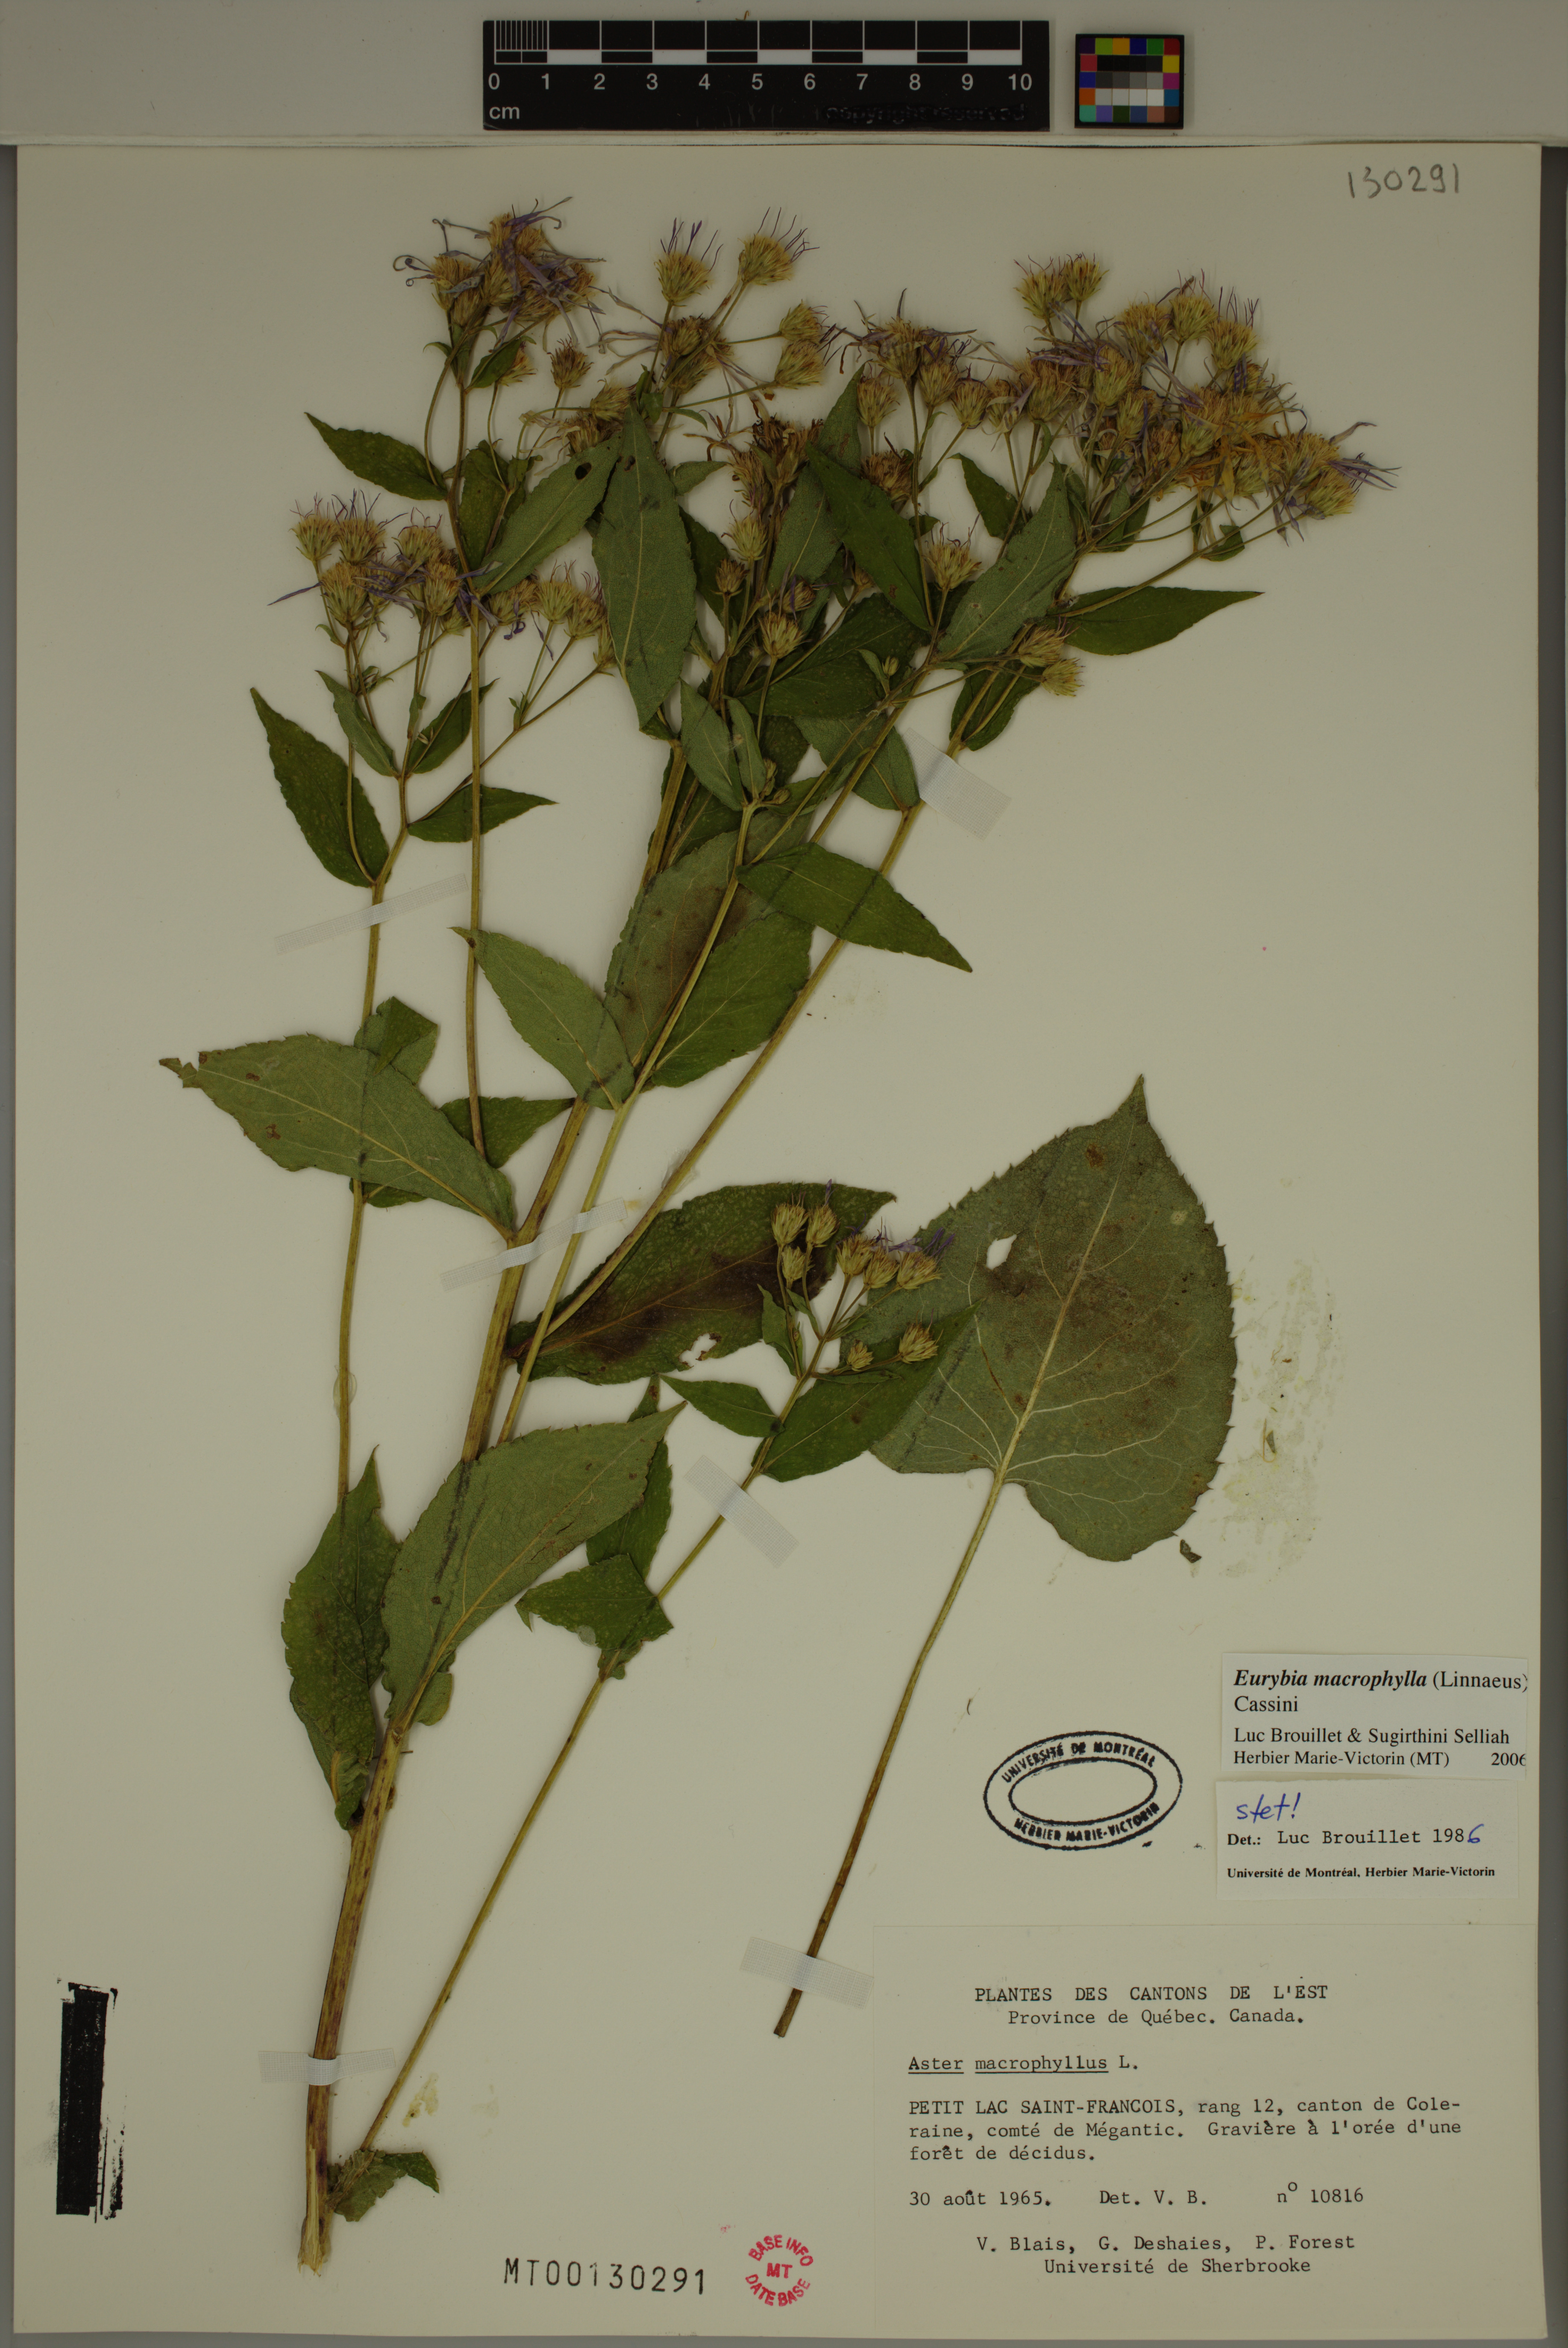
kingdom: Plantae
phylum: Tracheophyta
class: Magnoliopsida
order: Asterales
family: Asteraceae
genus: Eurybia
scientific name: Eurybia macrophylla
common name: Big-leaved aster
